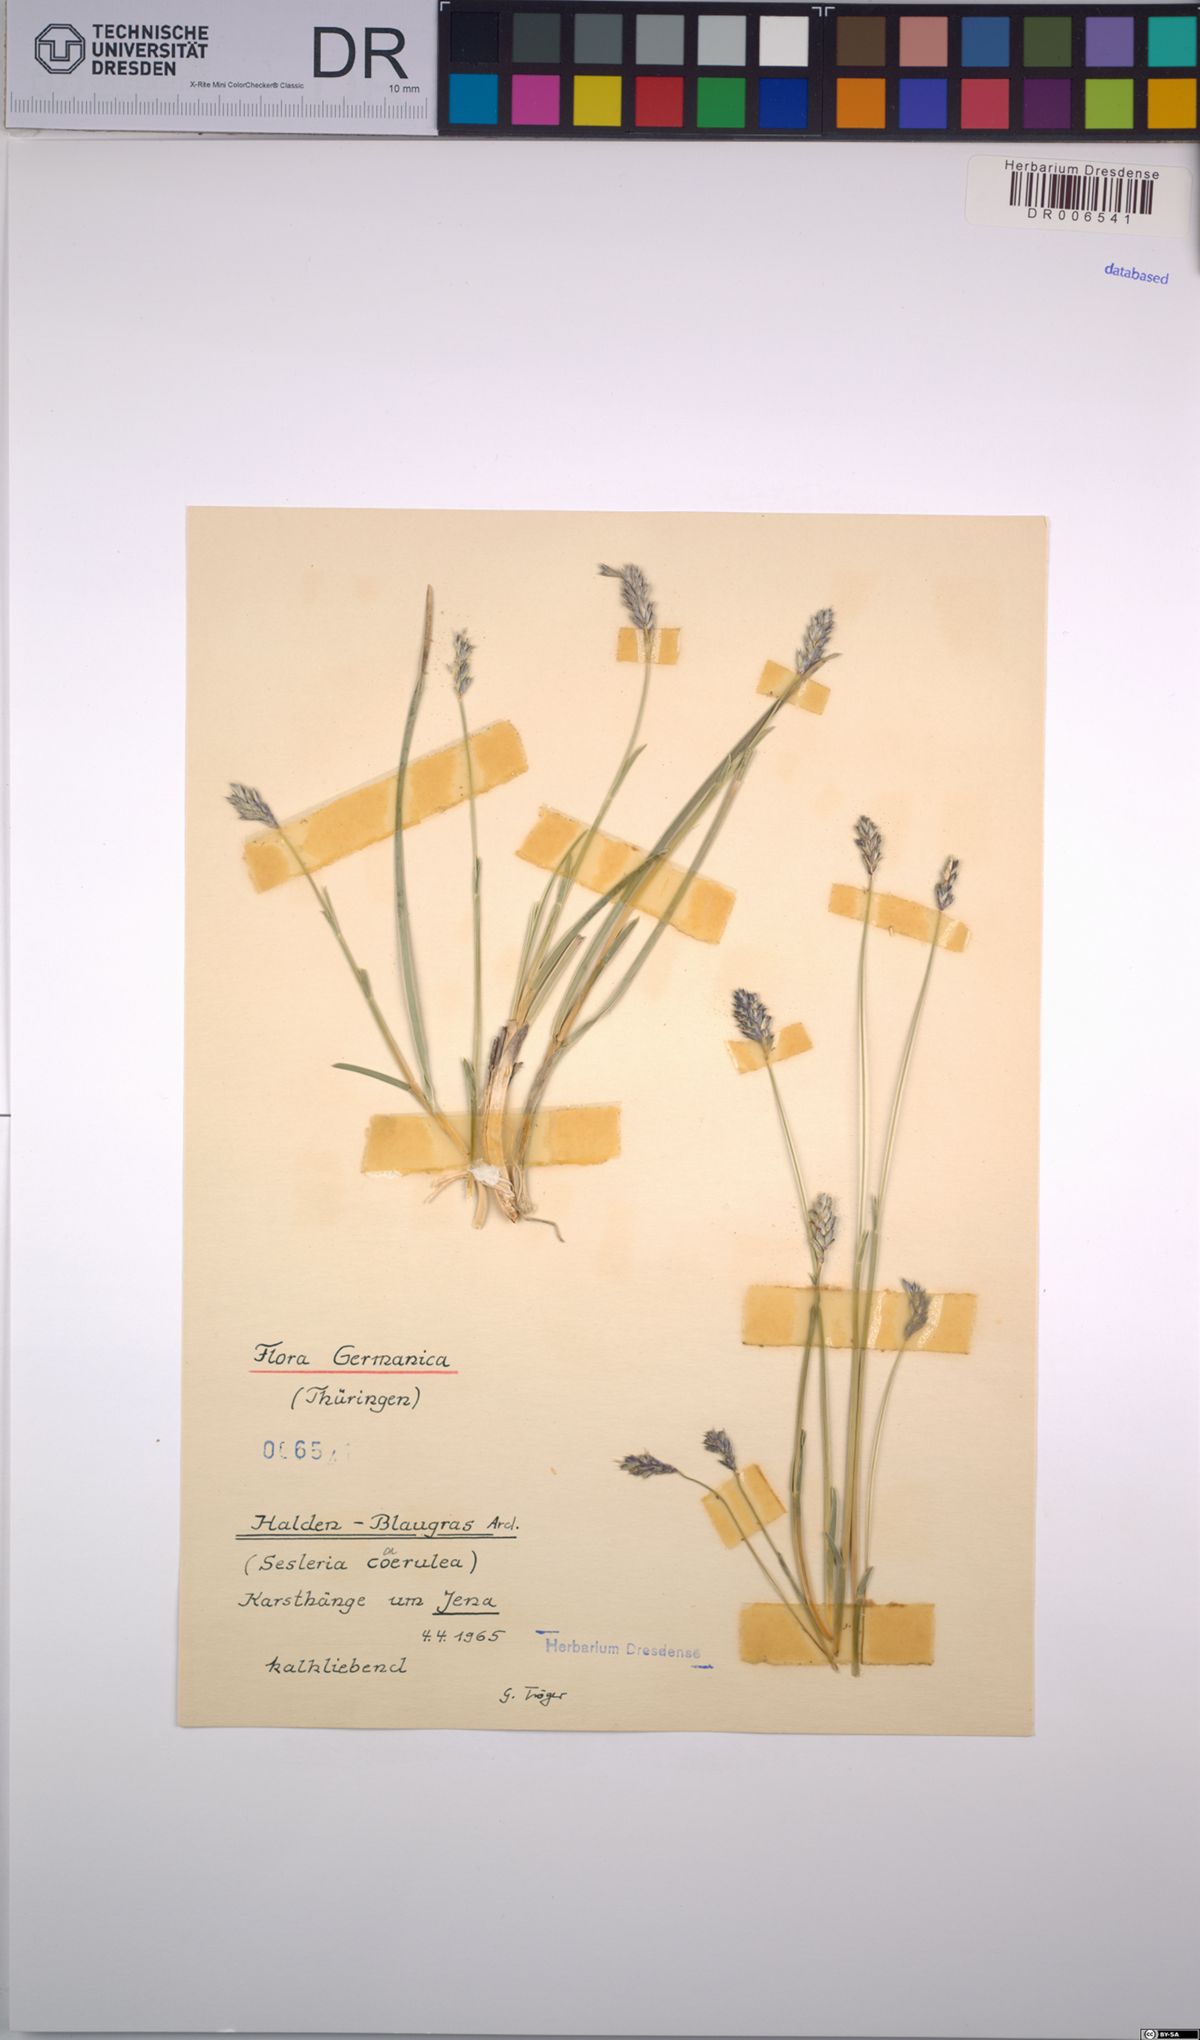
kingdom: Plantae
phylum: Tracheophyta
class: Liliopsida
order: Poales
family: Poaceae
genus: Sesleria
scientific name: Sesleria caerulea
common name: Blue moor-grass
